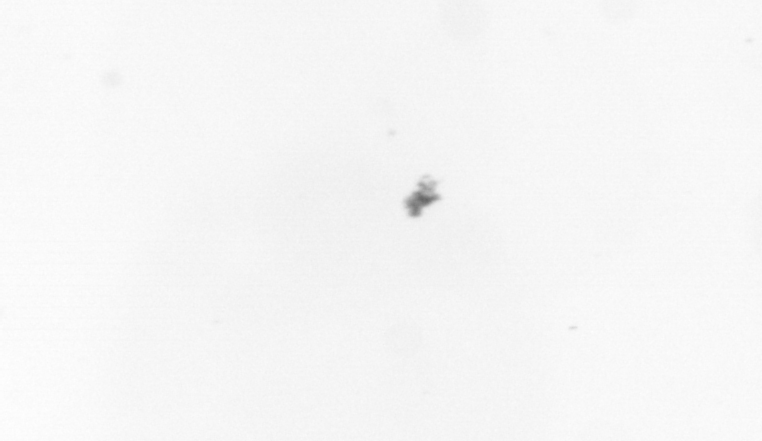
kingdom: Chromista
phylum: Ochrophyta
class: Bacillariophyceae
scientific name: Bacillariophyceae
